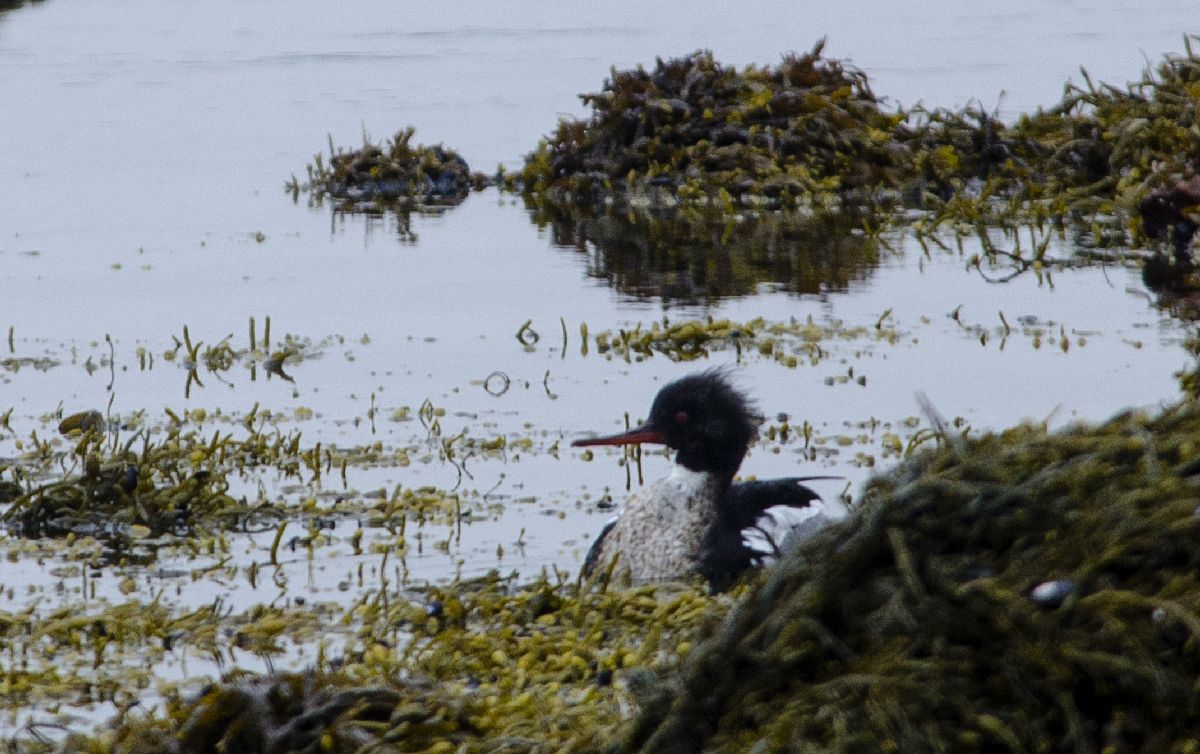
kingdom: Animalia
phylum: Chordata
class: Aves
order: Anseriformes
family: Anatidae
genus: Mergus
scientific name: Mergus serrator
